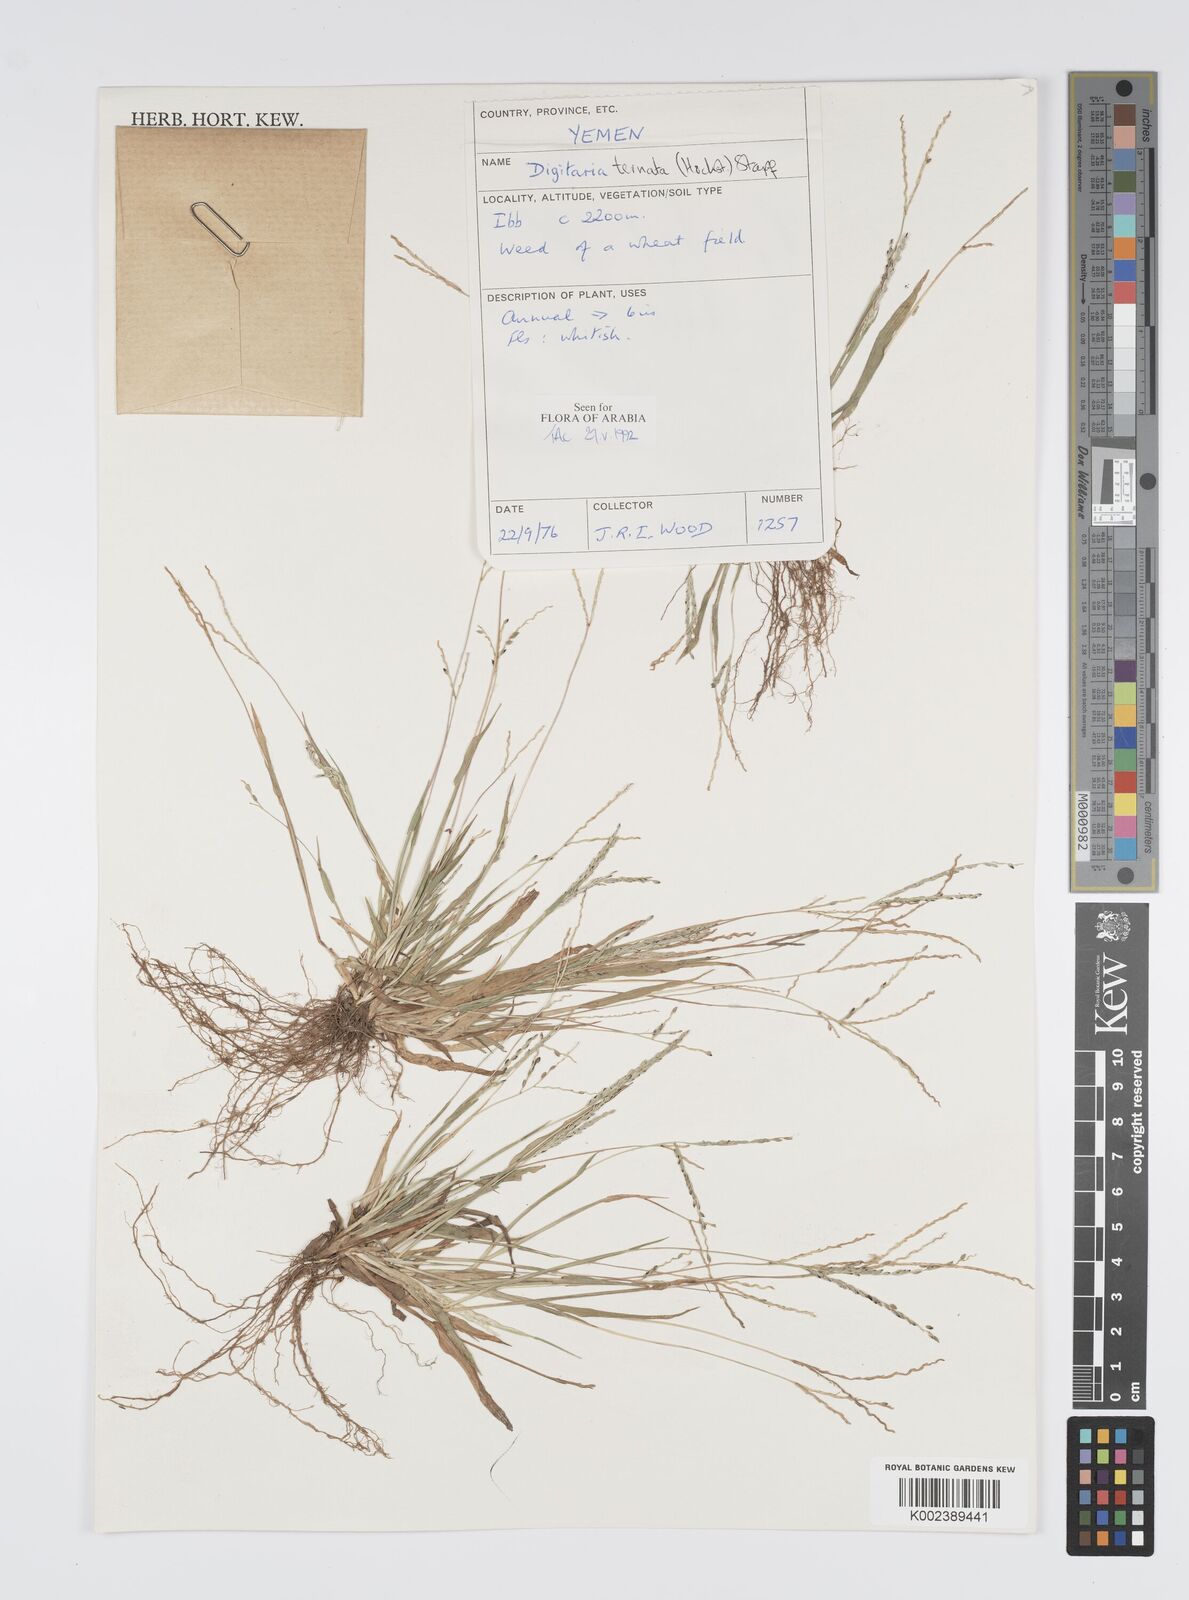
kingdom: Plantae
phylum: Tracheophyta
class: Liliopsida
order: Poales
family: Poaceae
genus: Digitaria
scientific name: Digitaria ternata
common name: Blackseed crabgrass
